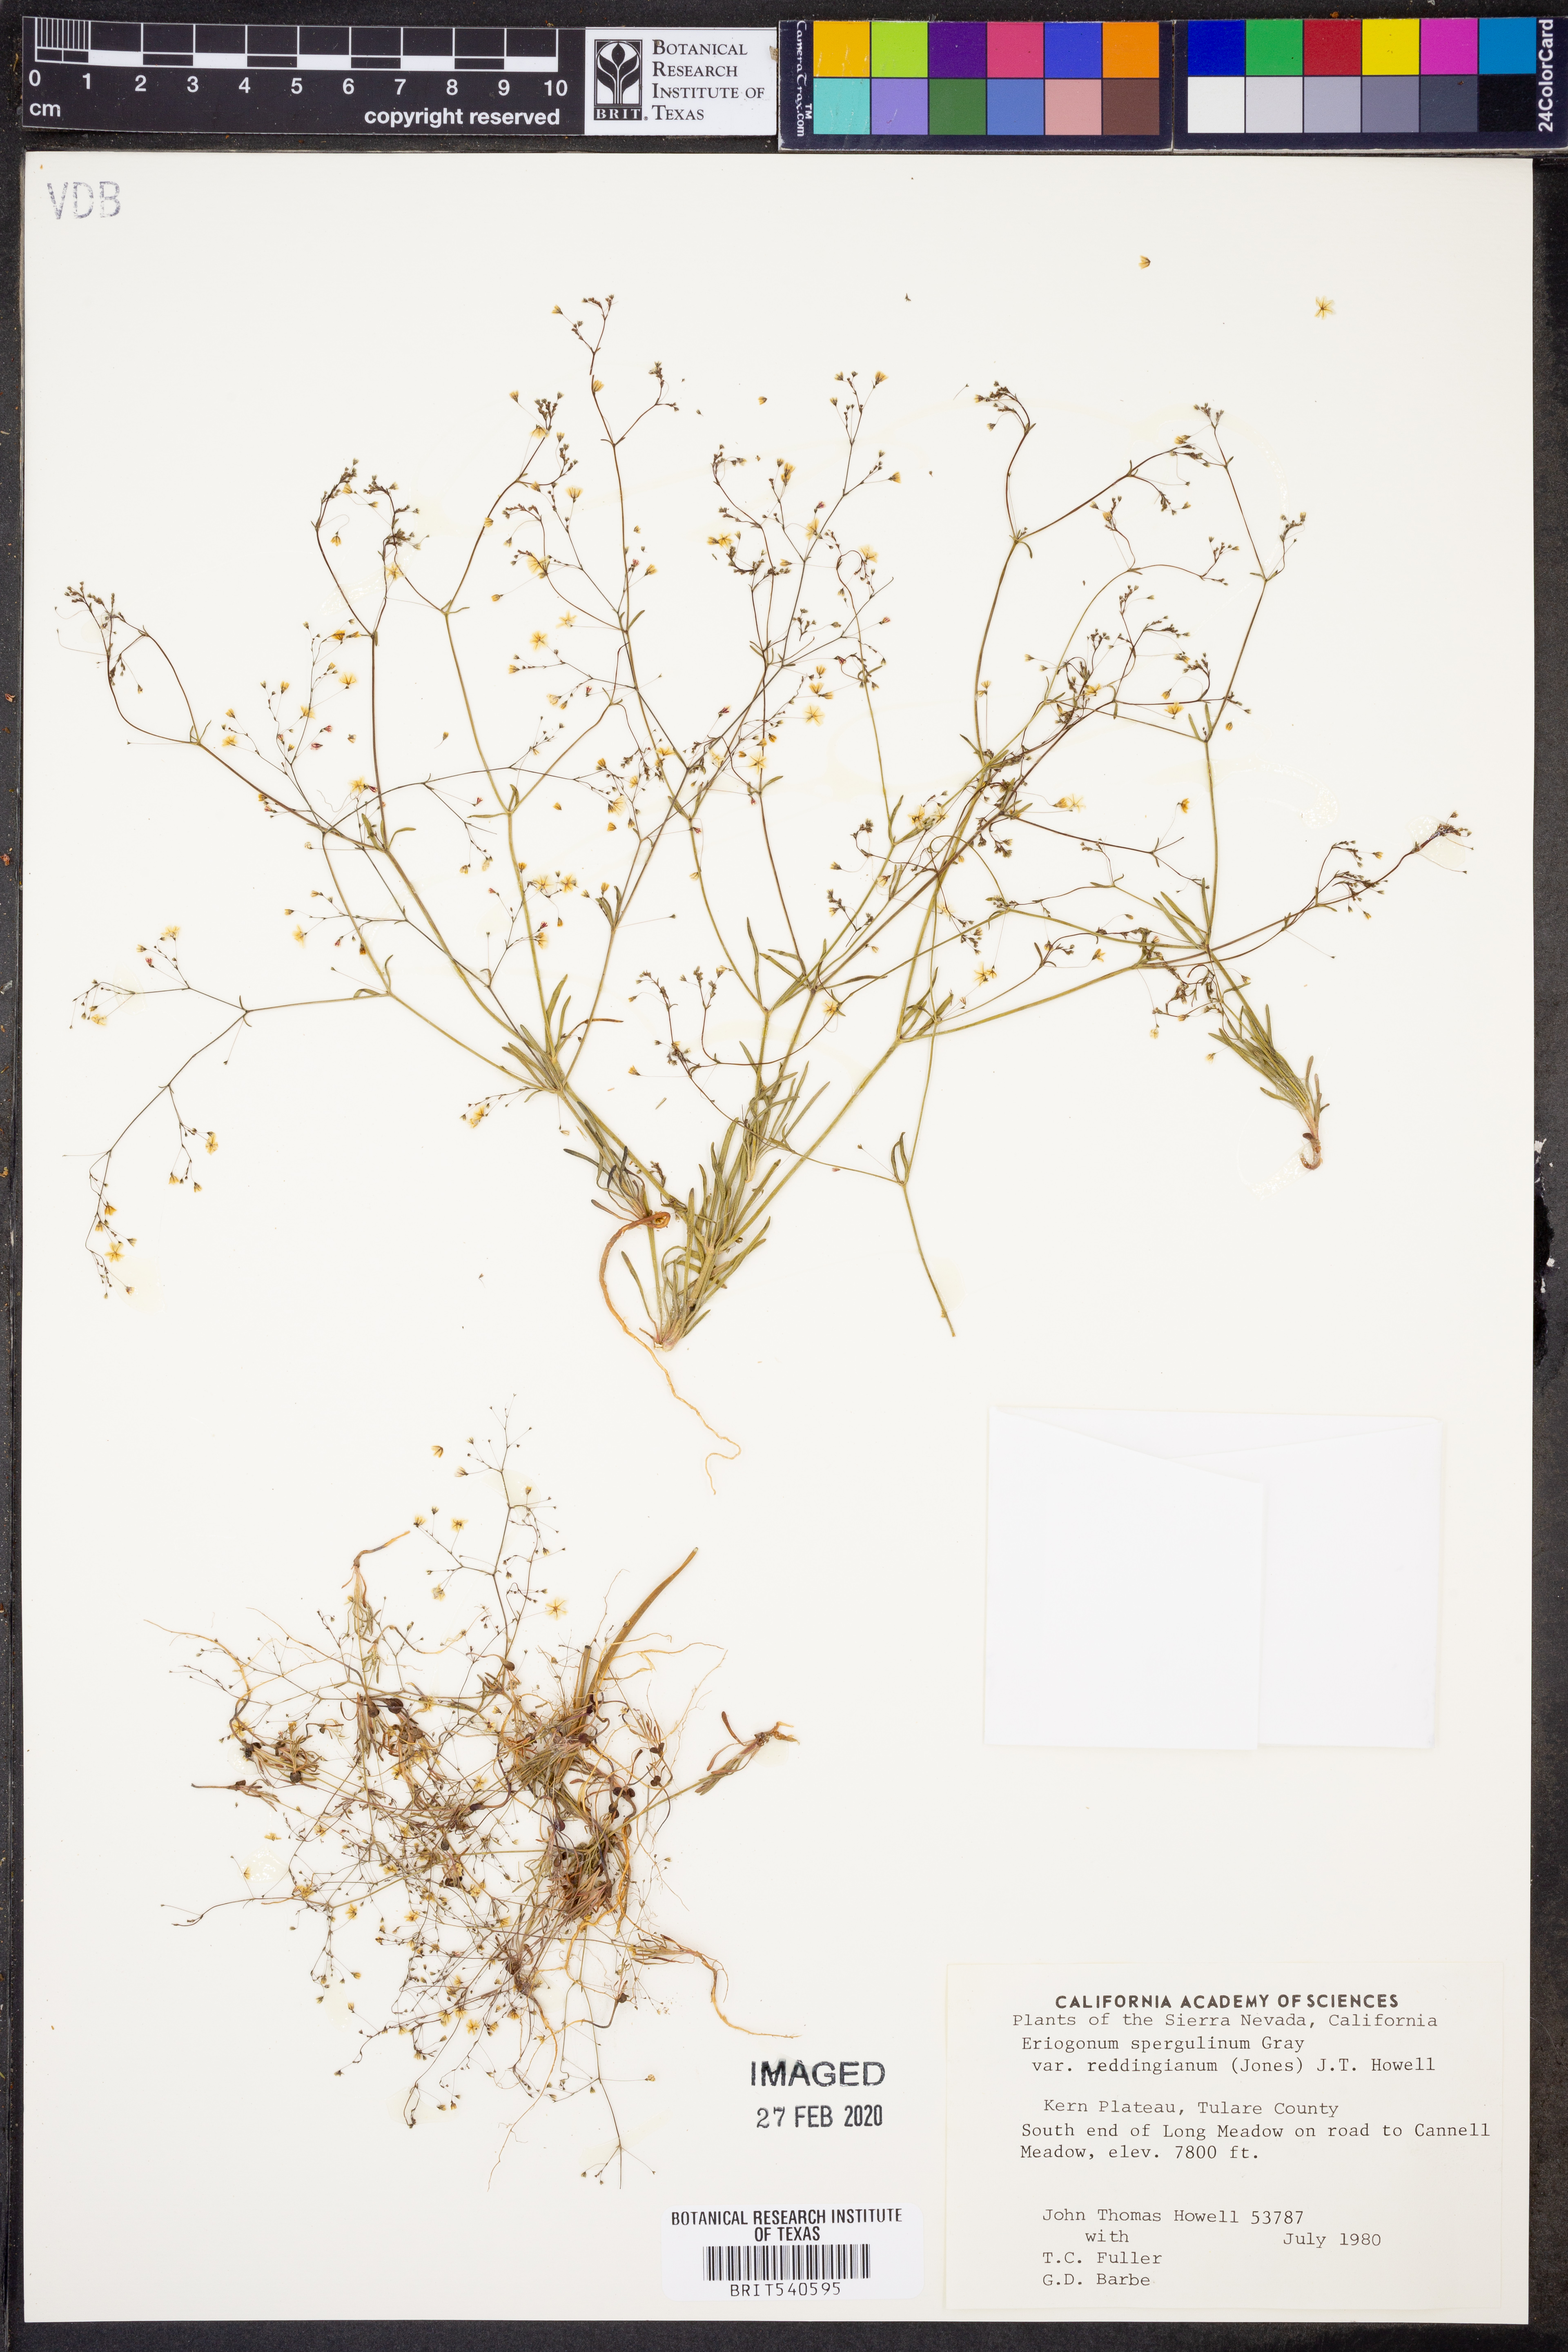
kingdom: Plantae
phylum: Tracheophyta
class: Magnoliopsida
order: Caryophyllales
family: Polygonaceae
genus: Eriogonum
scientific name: Eriogonum spergulinum
